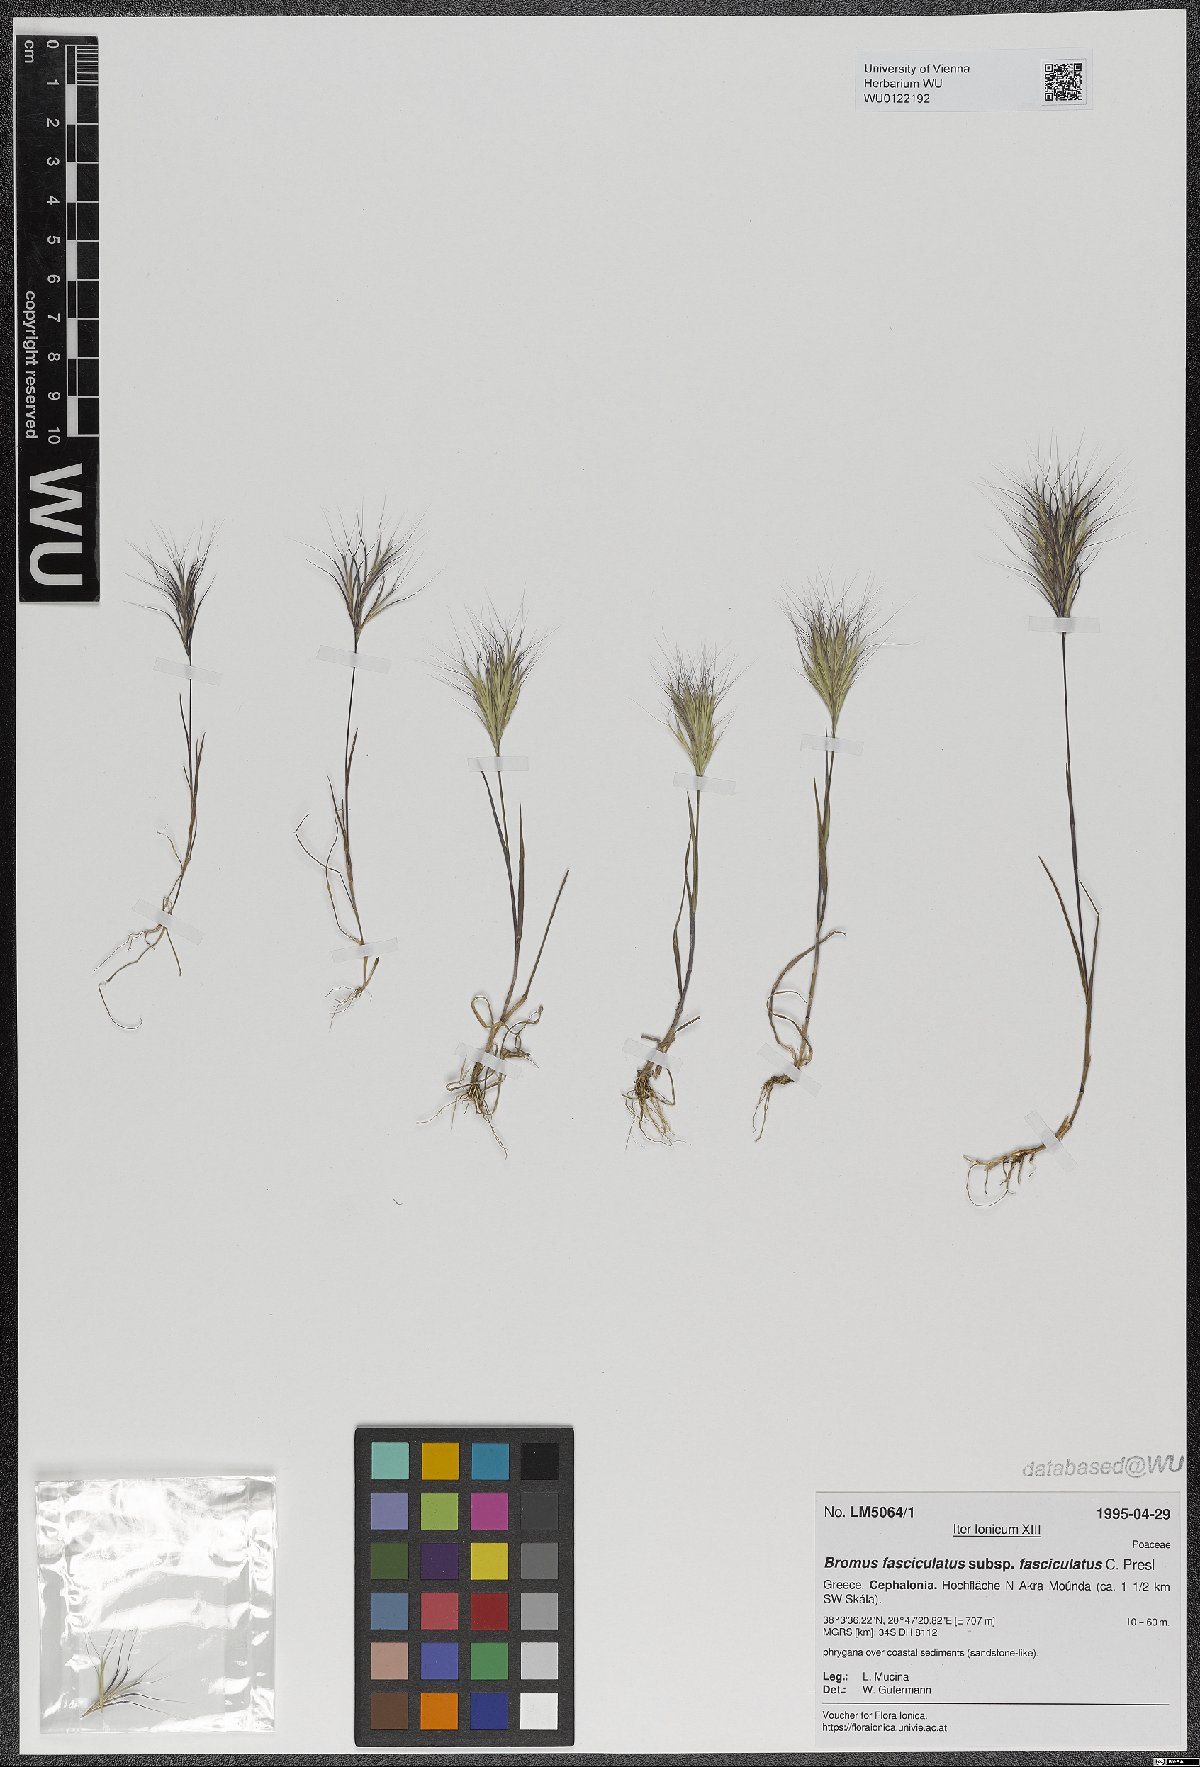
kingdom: Plantae
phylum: Tracheophyta
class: Liliopsida
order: Poales
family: Poaceae
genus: Bromus
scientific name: Bromus fasciculatus
